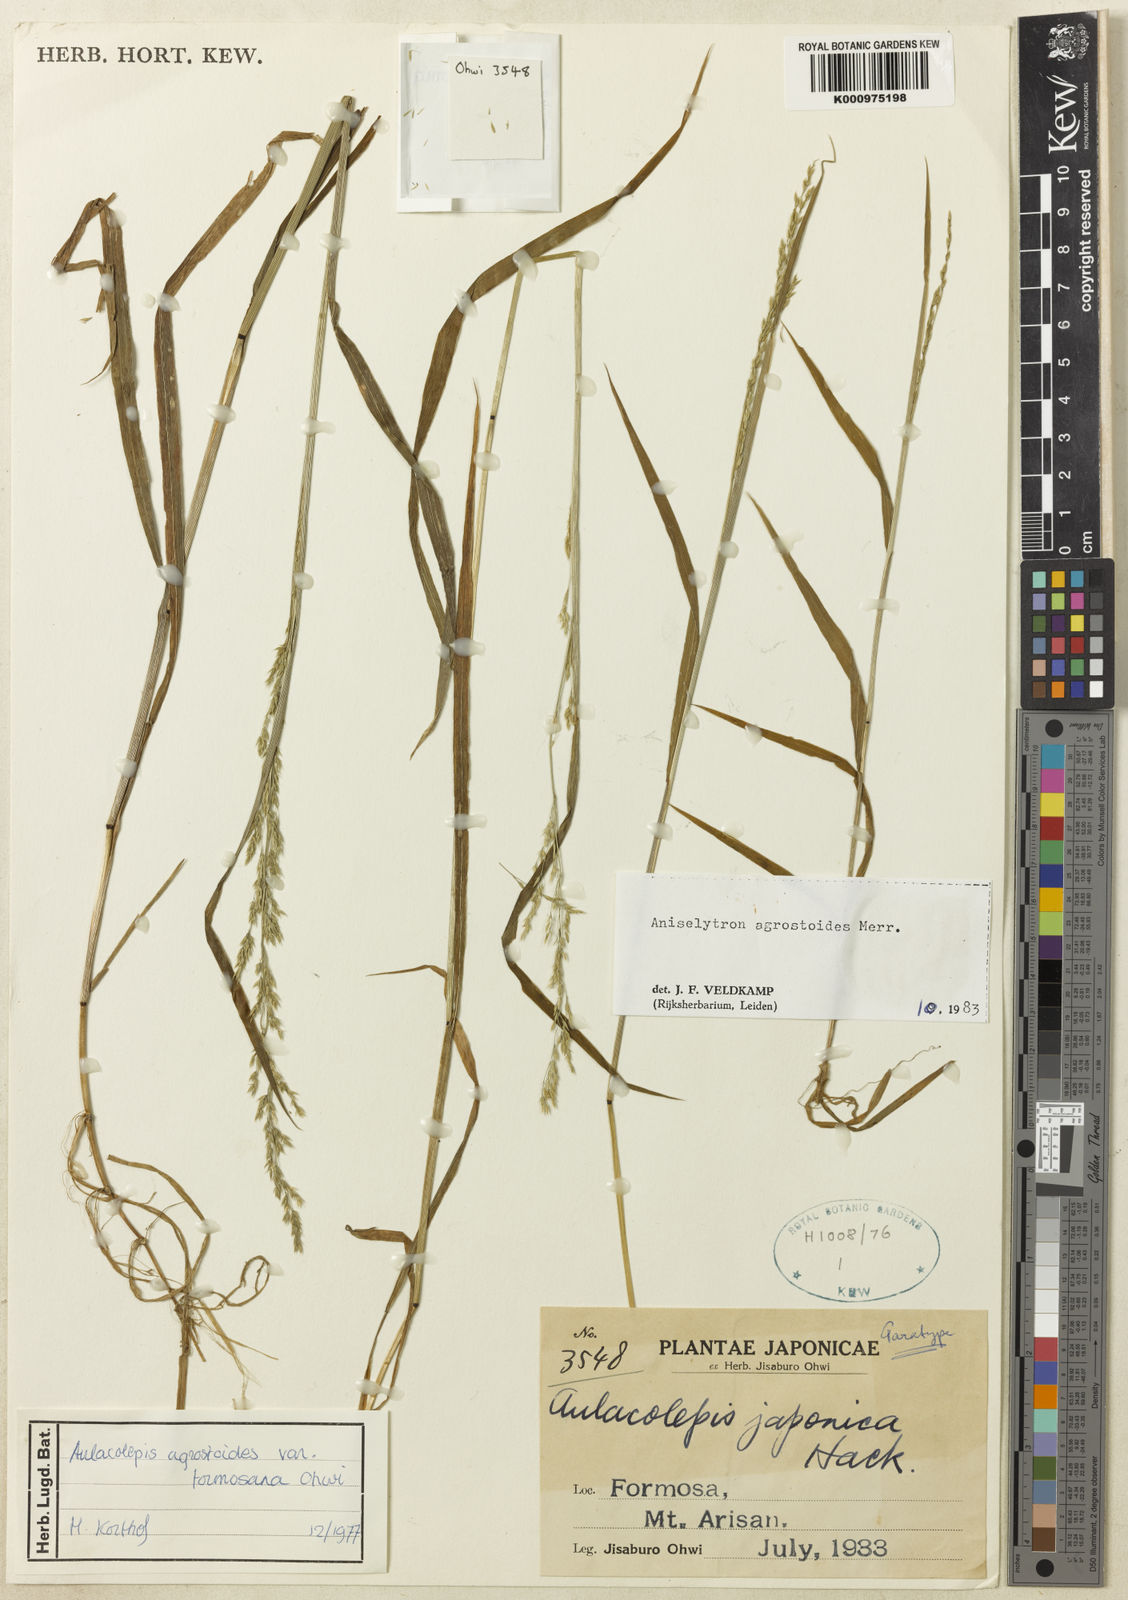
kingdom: Plantae
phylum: Tracheophyta
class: Liliopsida
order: Poales
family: Poaceae
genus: Aniselytron
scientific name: Aniselytron agrostoides
